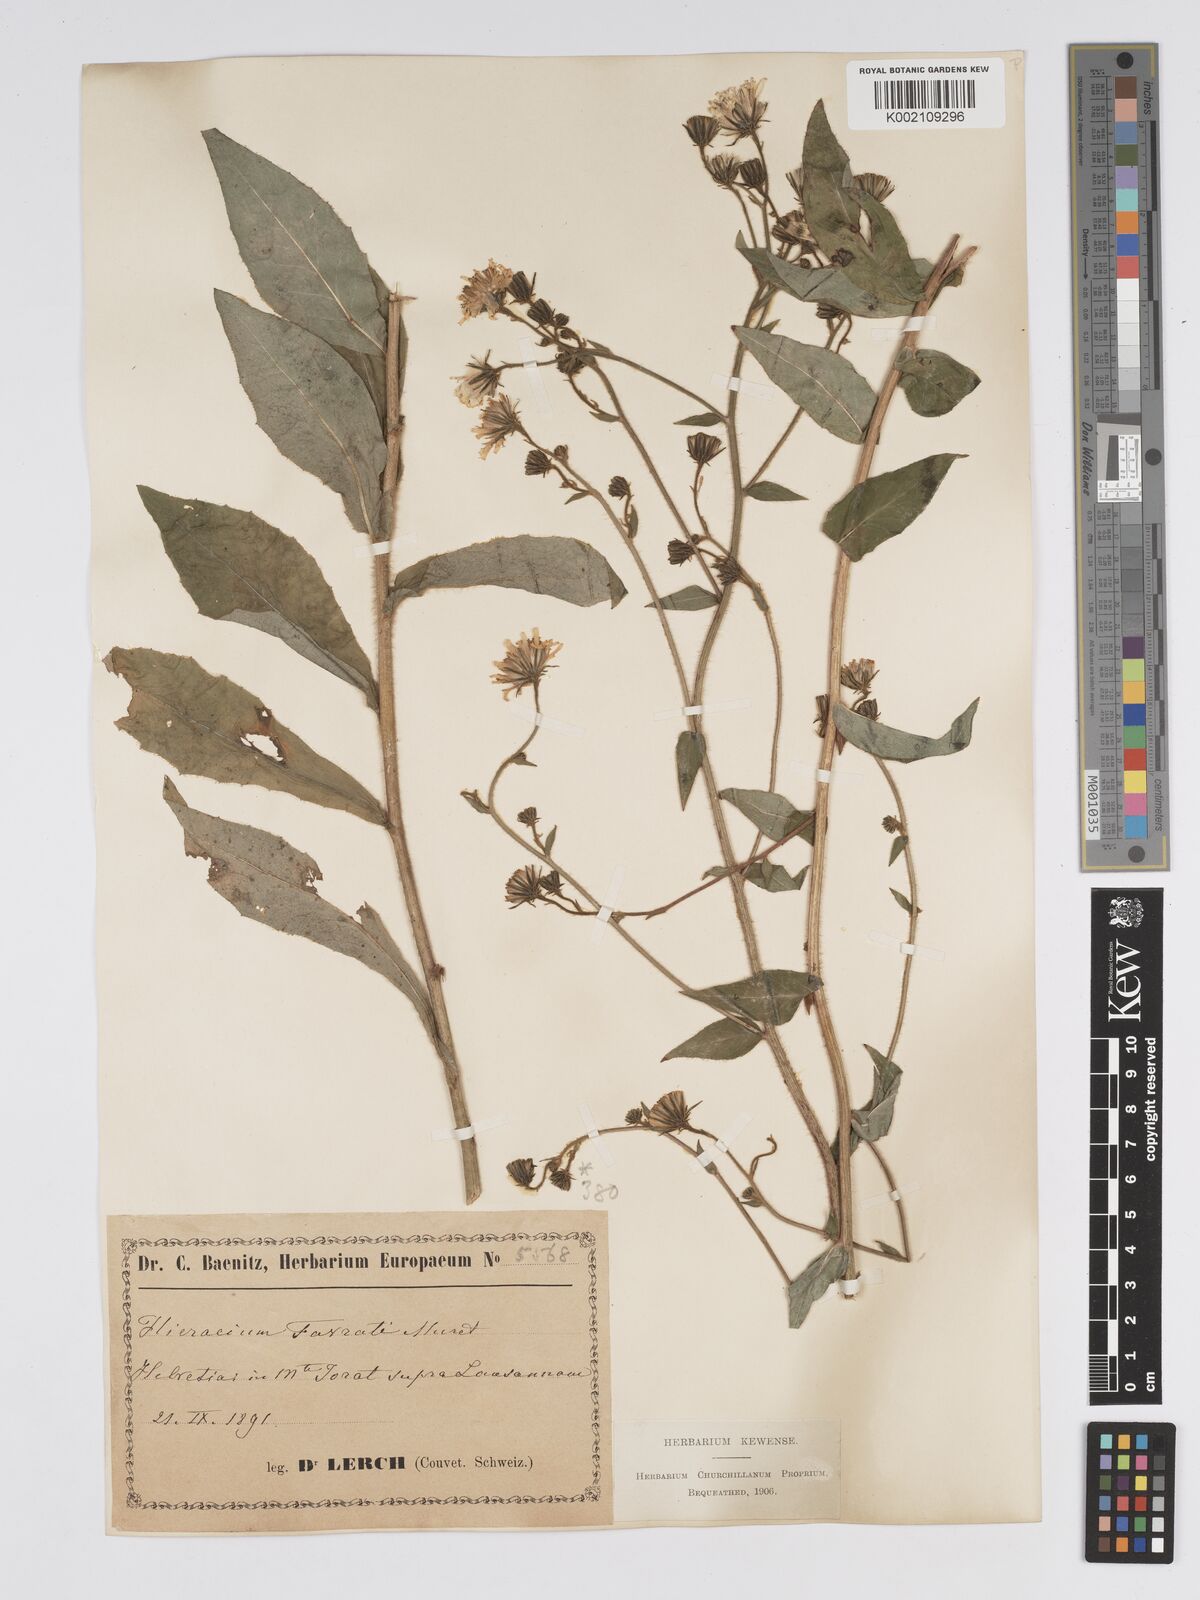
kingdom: Plantae
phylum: Tracheophyta
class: Magnoliopsida
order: Asterales
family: Asteraceae
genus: Hieracium
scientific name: Hieracium favratii
